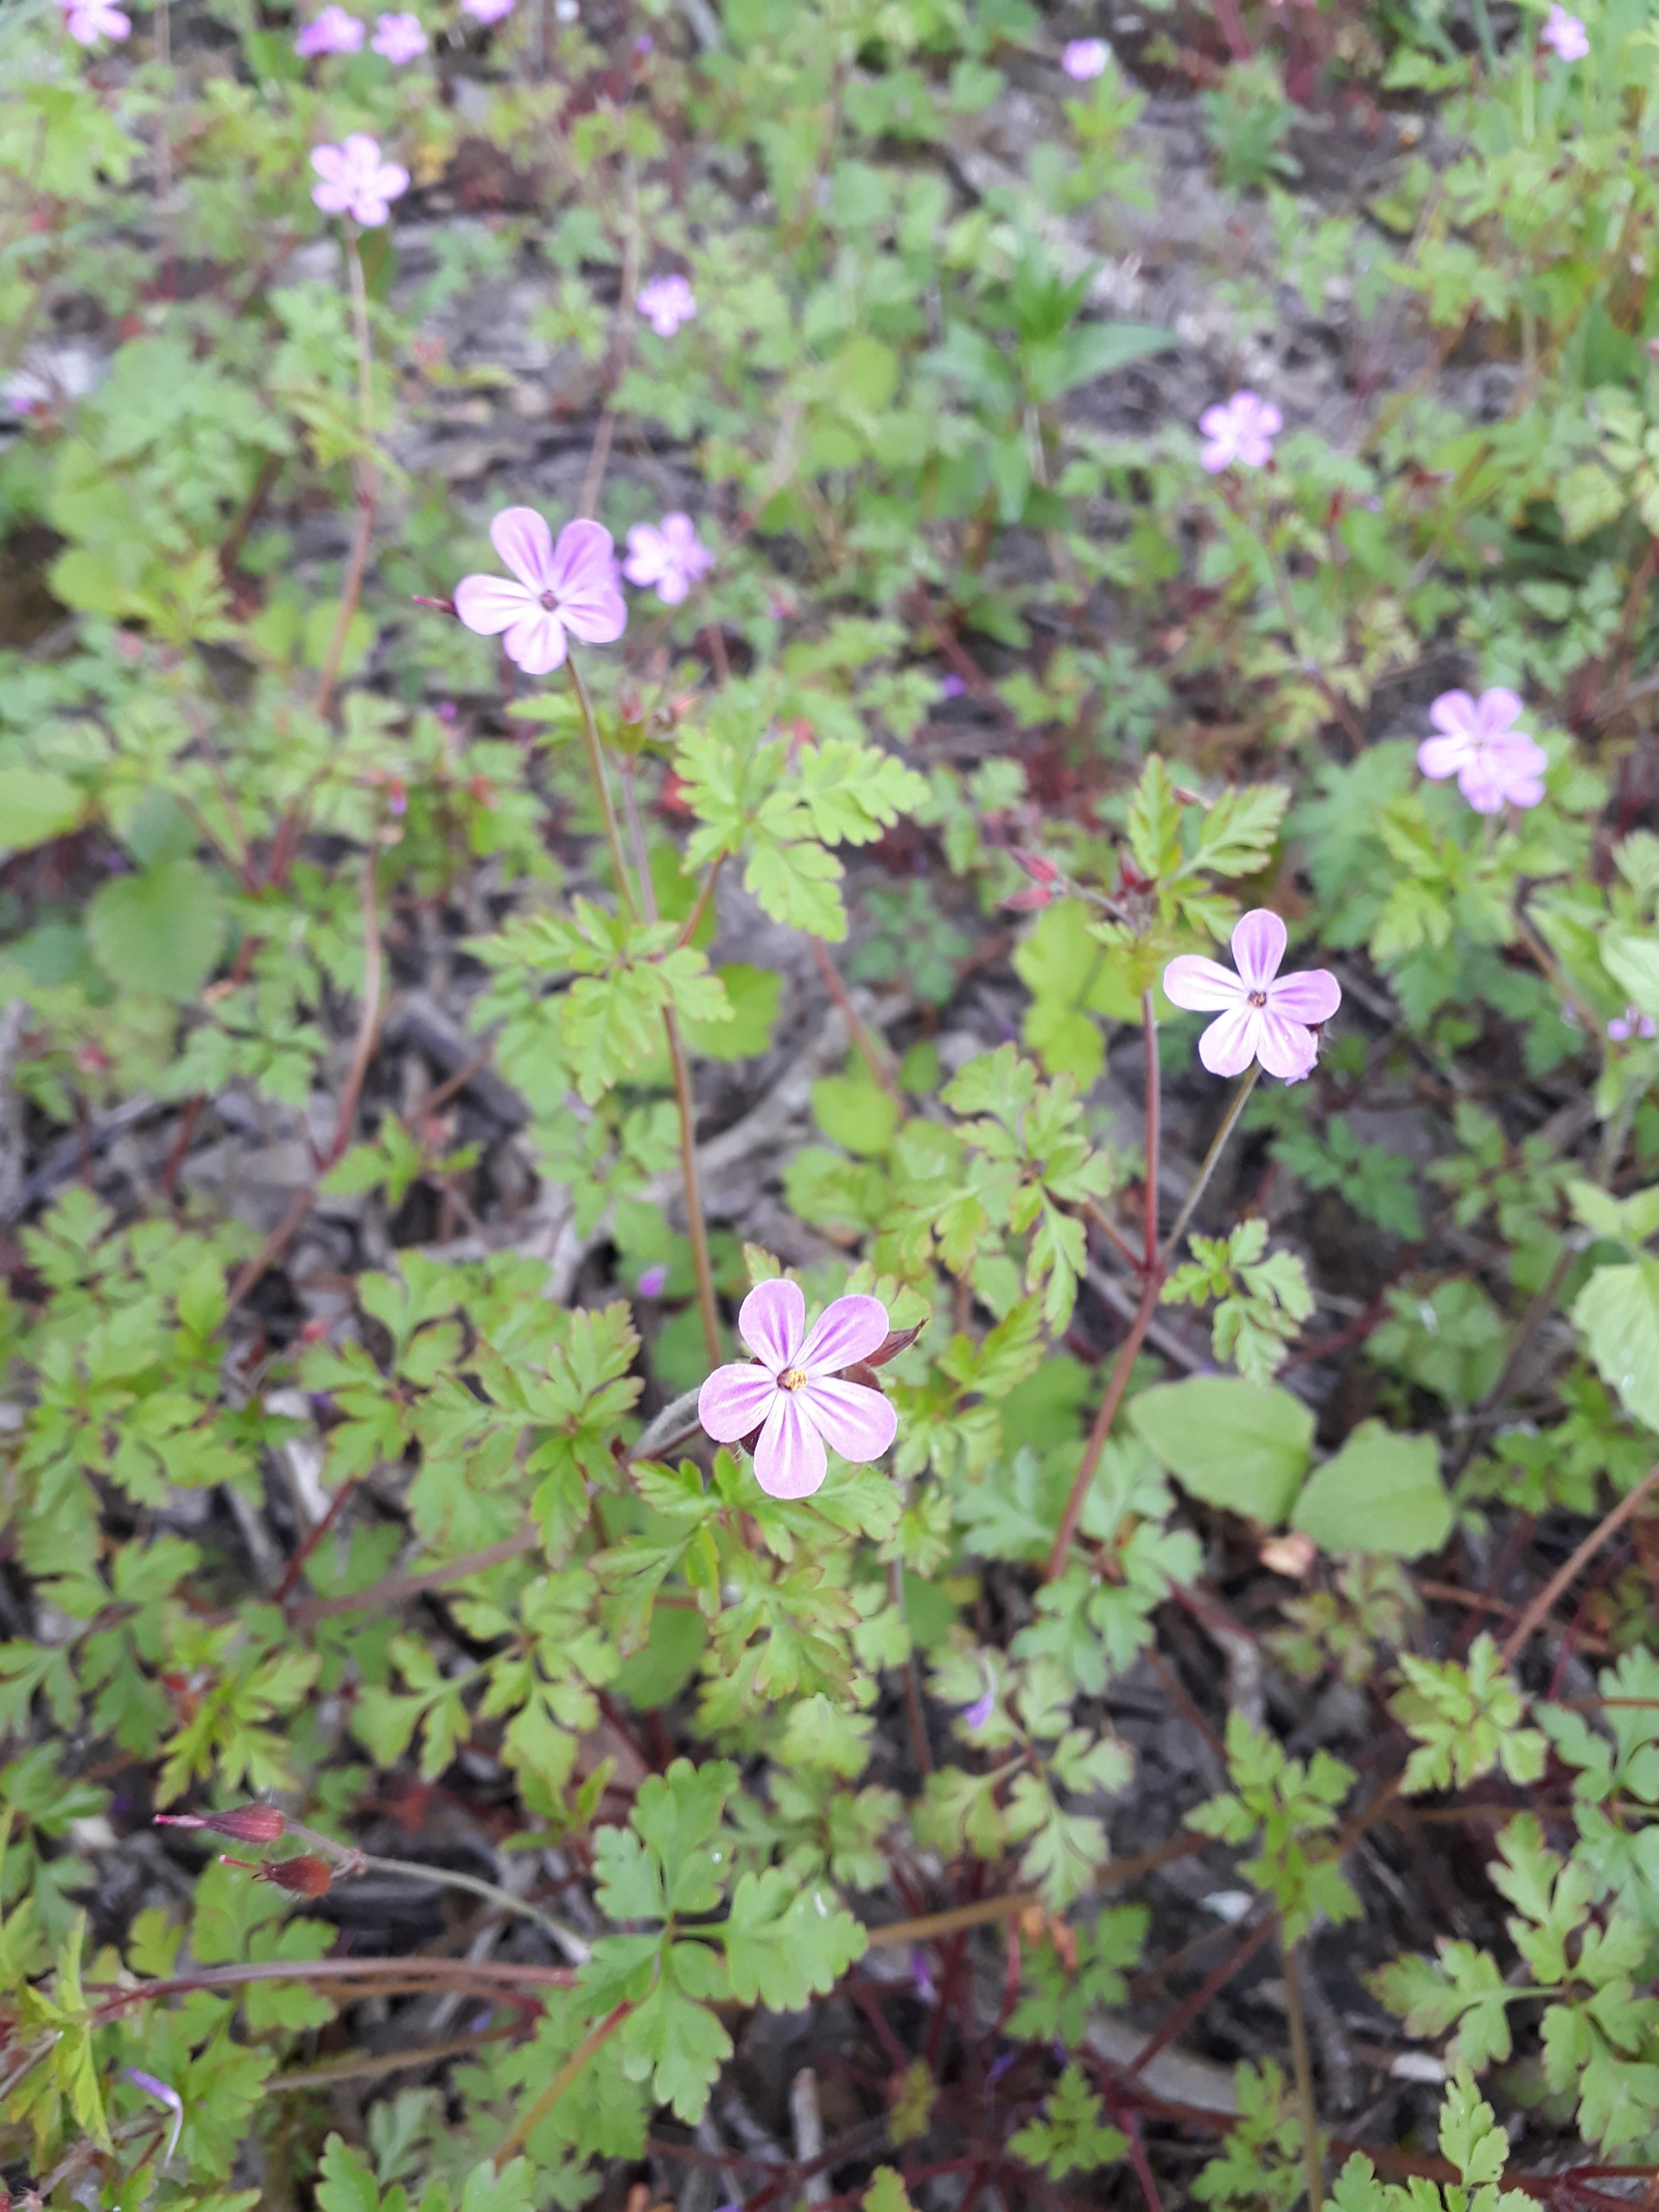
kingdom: Plantae
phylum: Tracheophyta
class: Magnoliopsida
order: Geraniales
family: Geraniaceae
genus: Geranium
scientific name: Geranium robertianum
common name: Stinkende storkenæb
